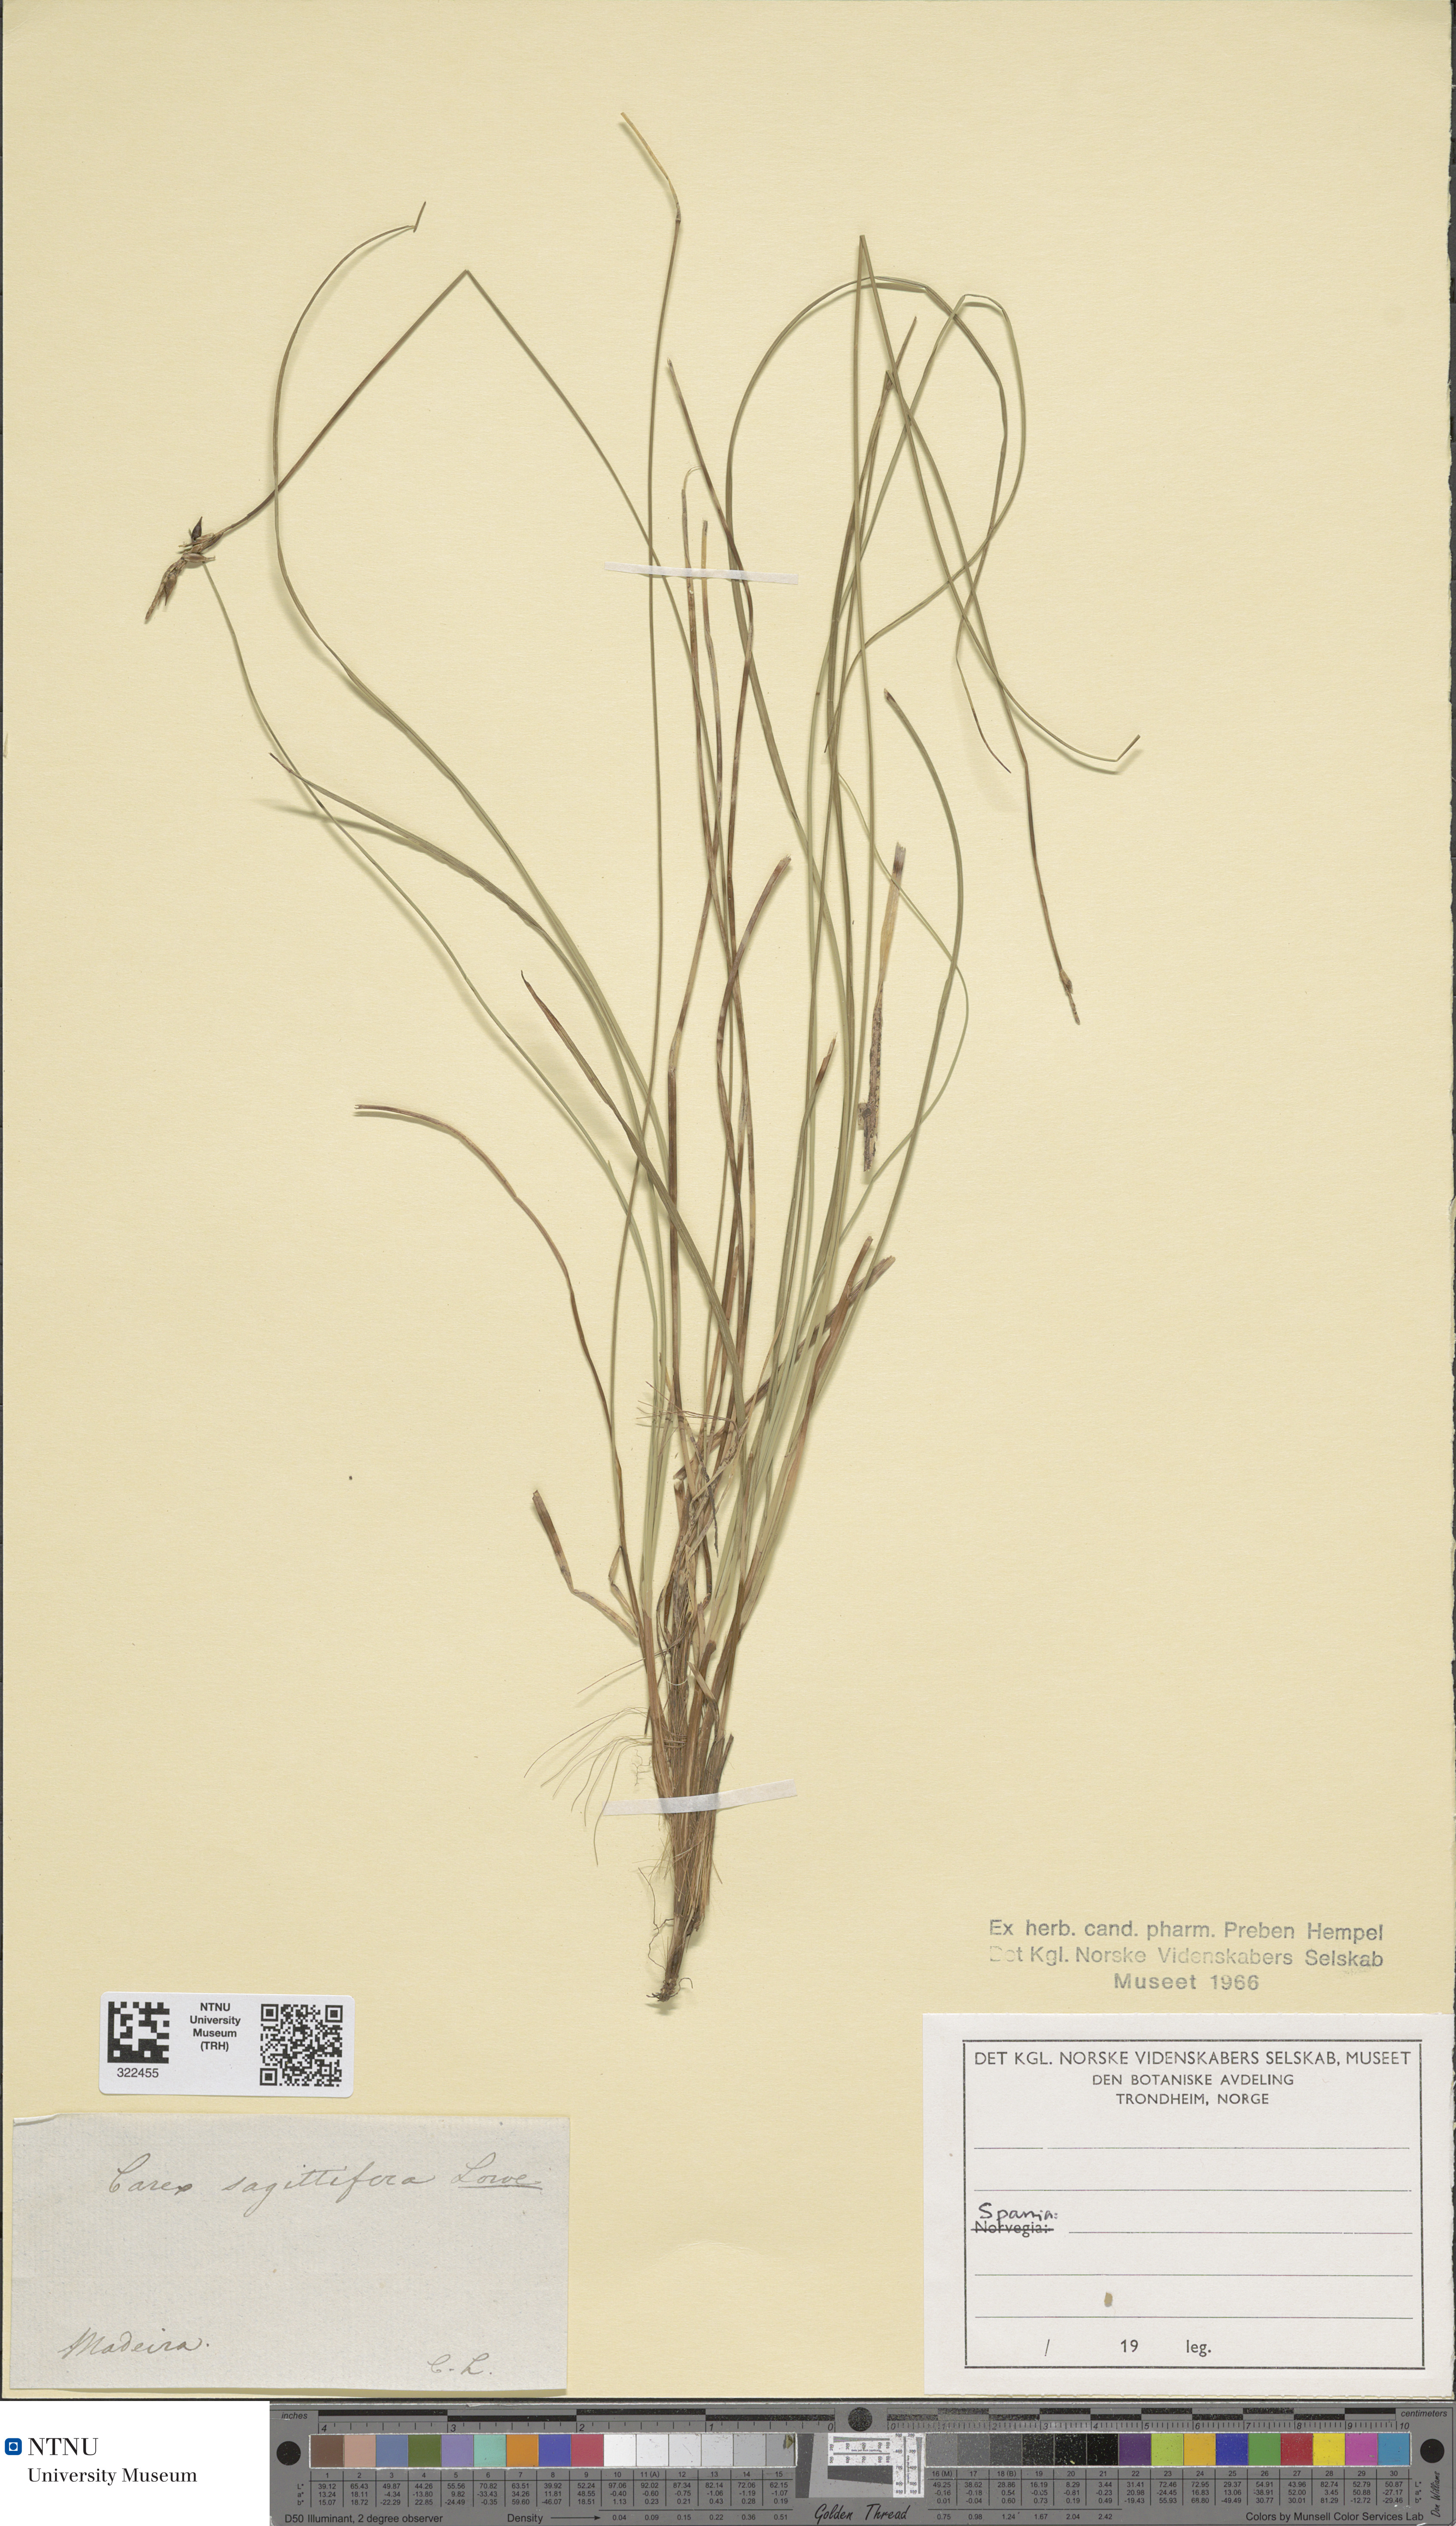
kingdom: Plantae
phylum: Tracheophyta
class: Liliopsida
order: Poales
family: Cyperaceae
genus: Carex
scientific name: Carex peregrina
